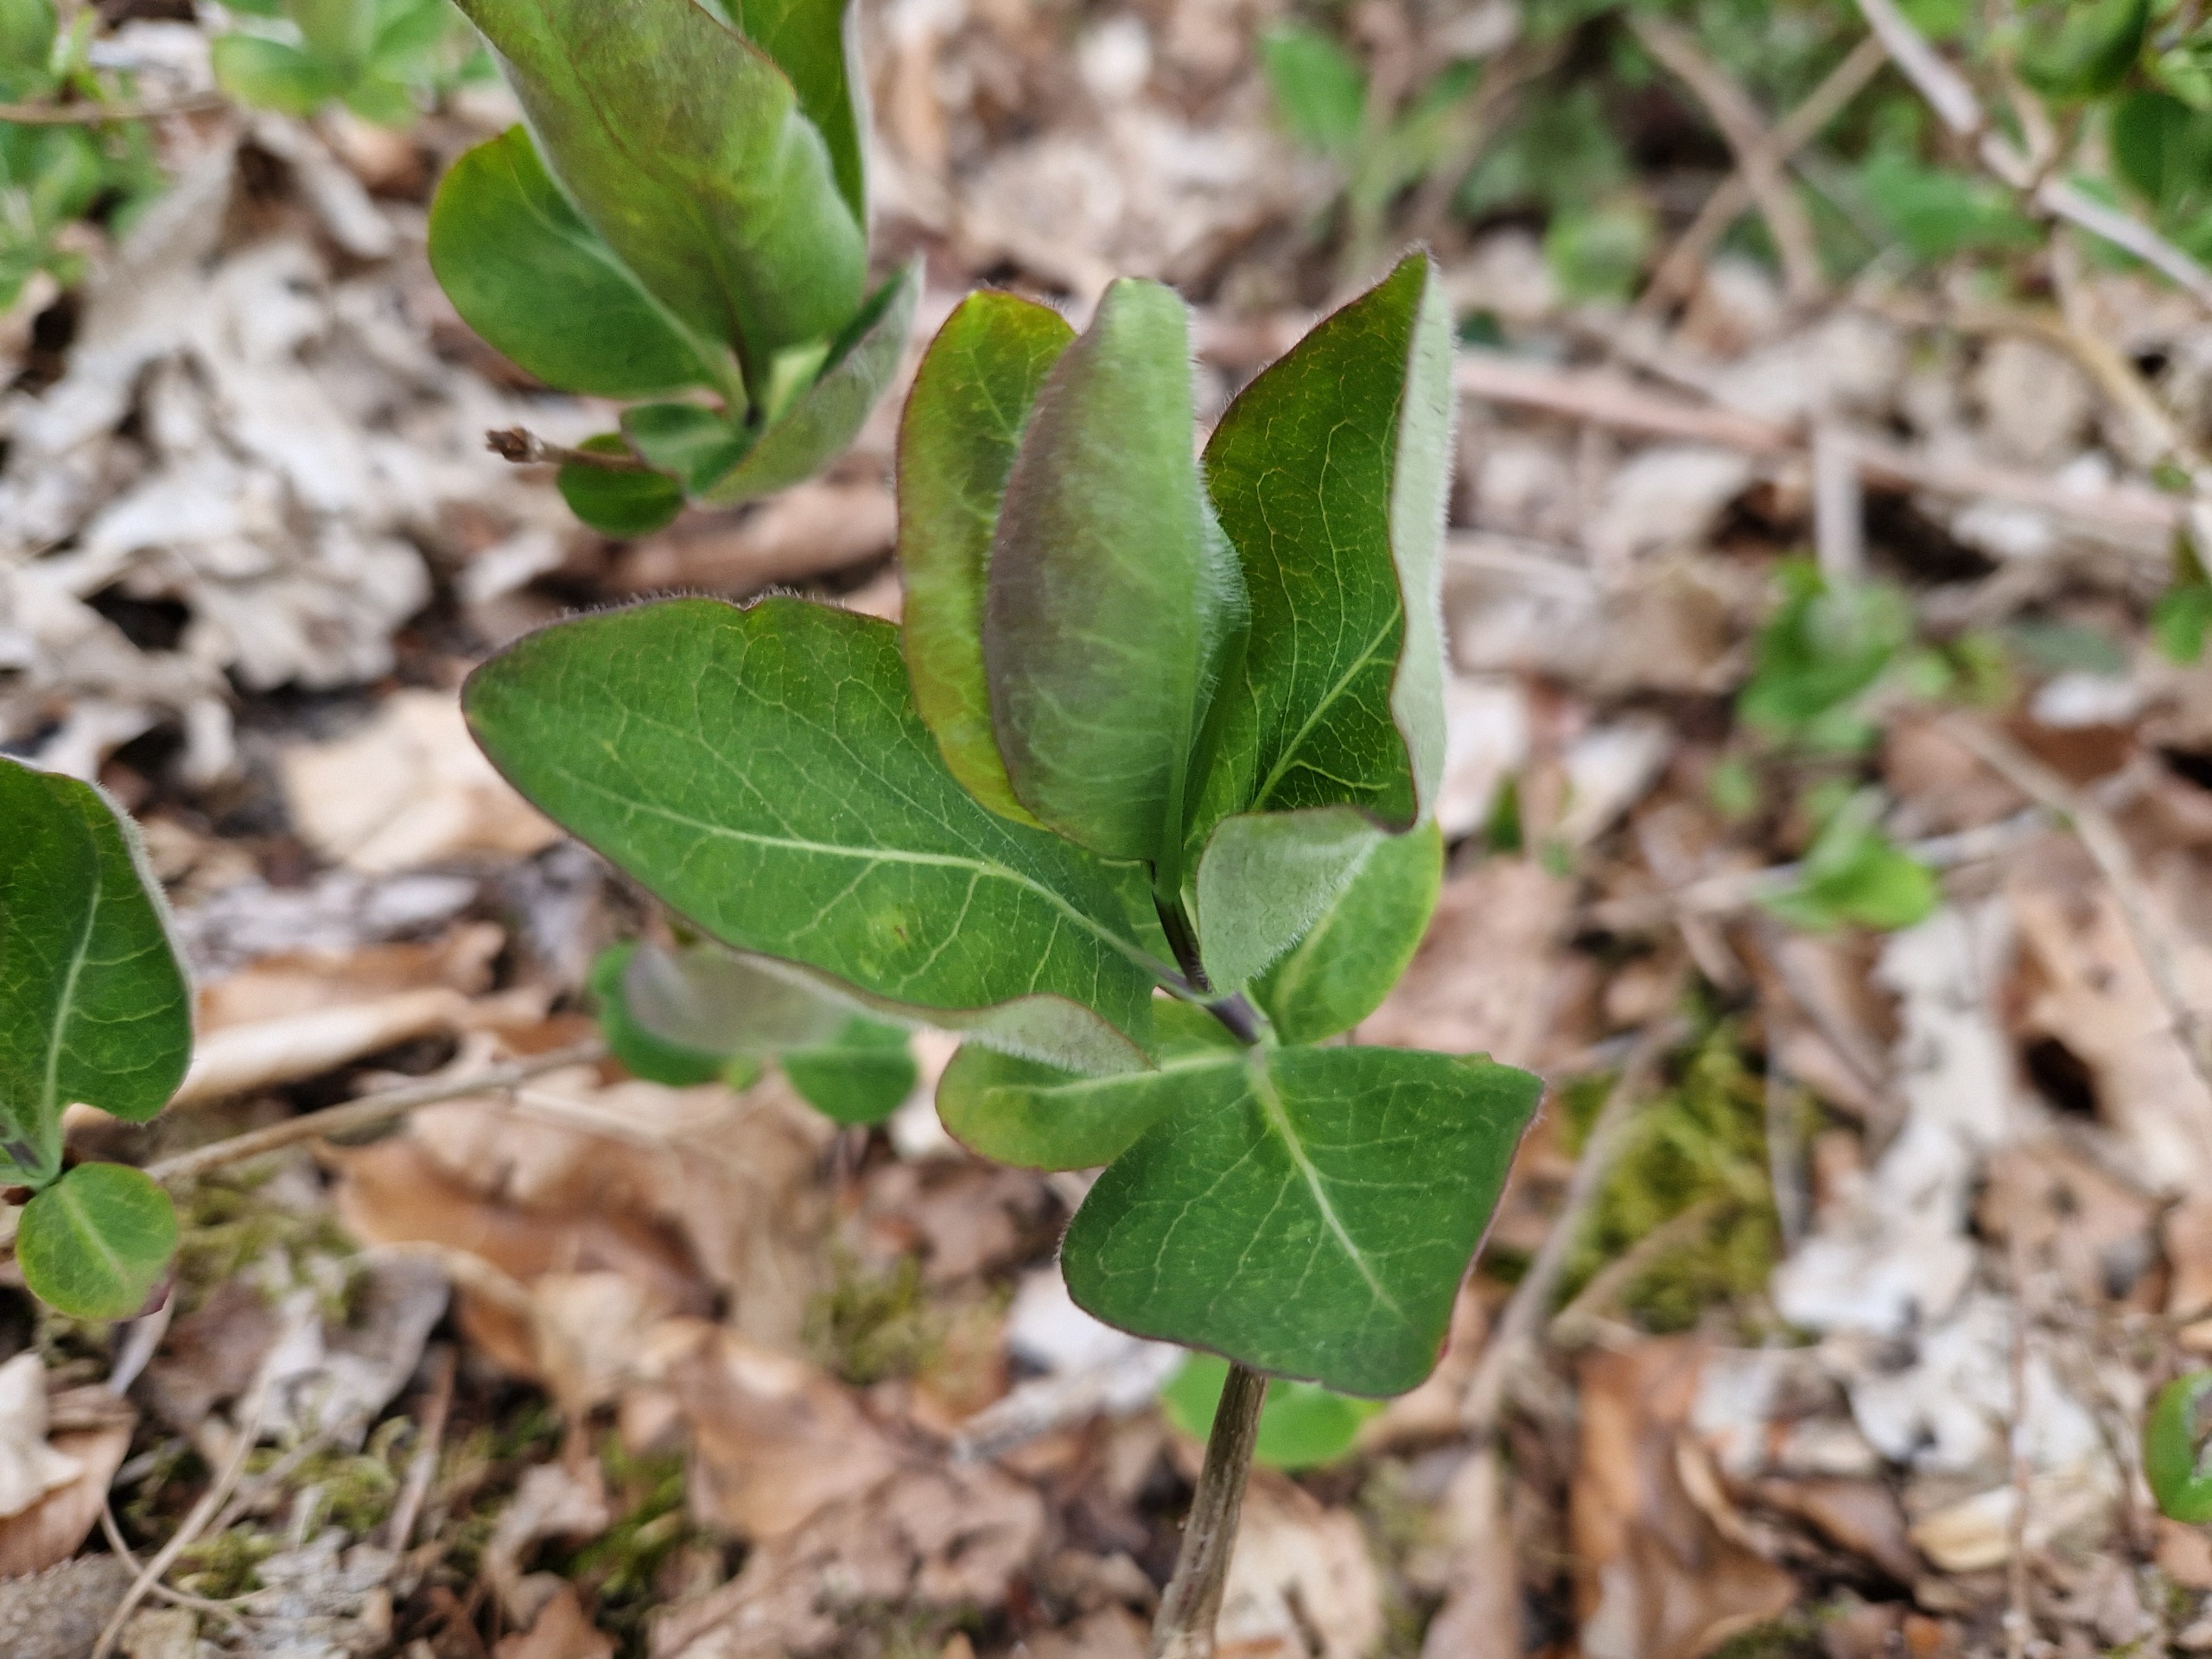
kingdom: Plantae
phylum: Tracheophyta
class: Magnoliopsida
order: Dipsacales
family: Caprifoliaceae
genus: Lonicera
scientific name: Lonicera periclymenum
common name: Almindelig gedeblad
